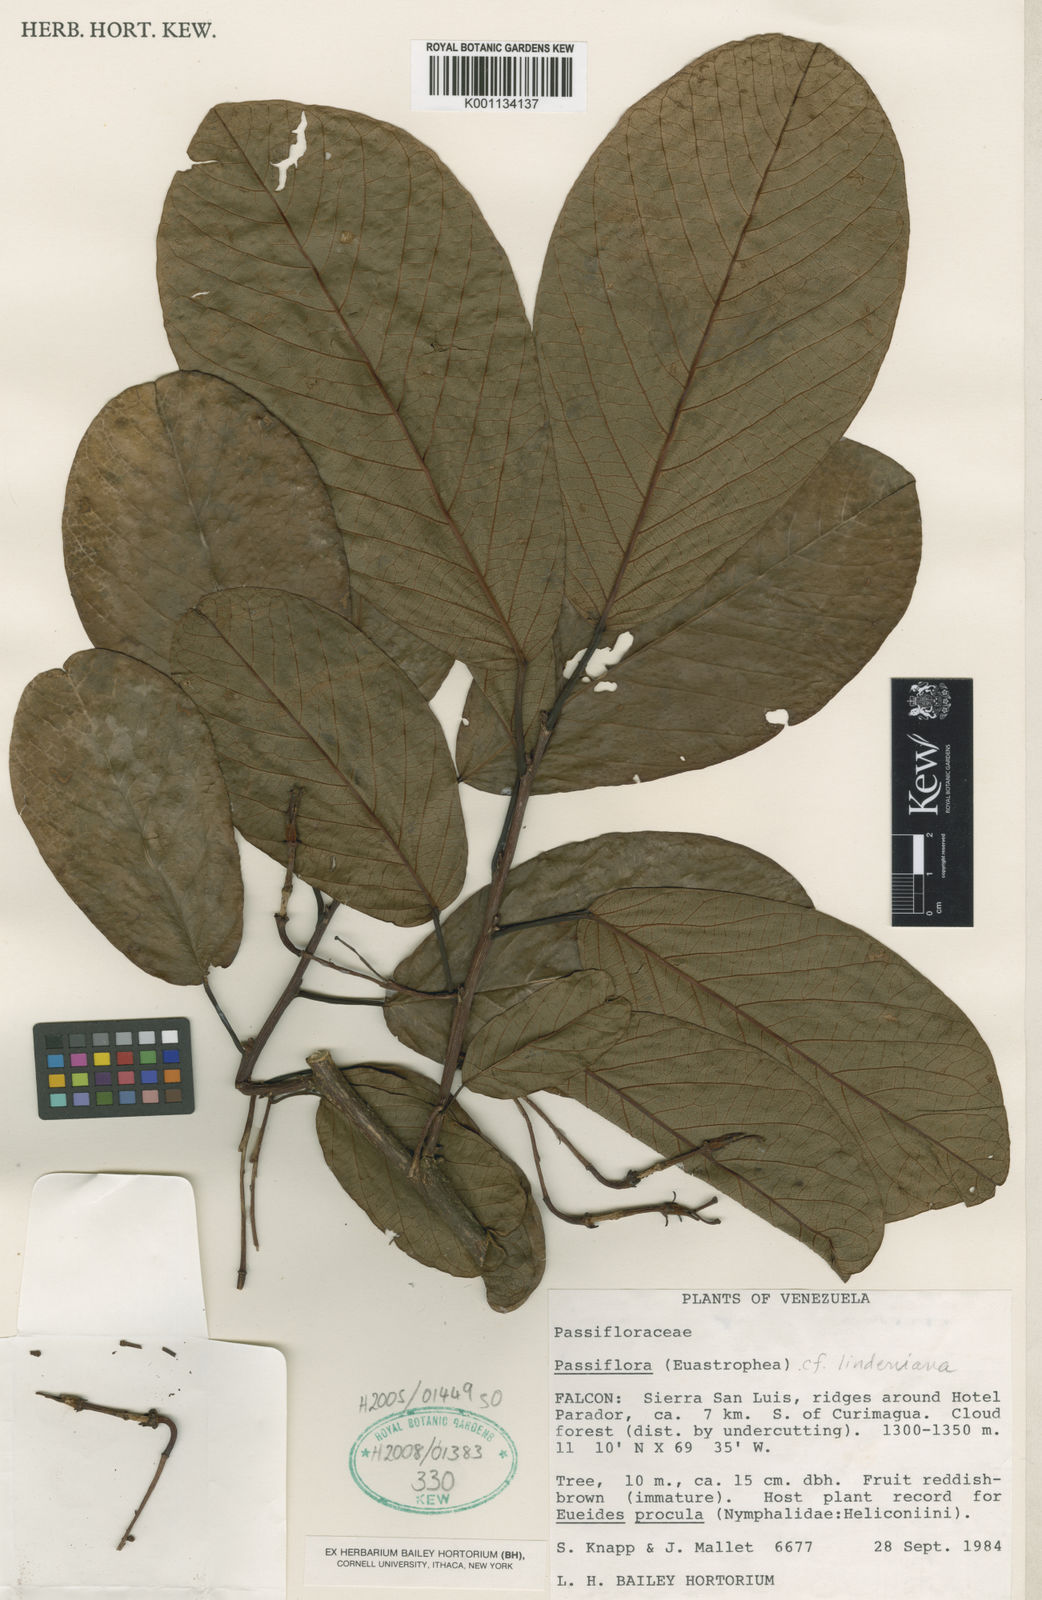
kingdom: Plantae
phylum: Tracheophyta
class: Magnoliopsida
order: Malpighiales
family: Passifloraceae
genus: Passiflora
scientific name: Passiflora lindeniana
